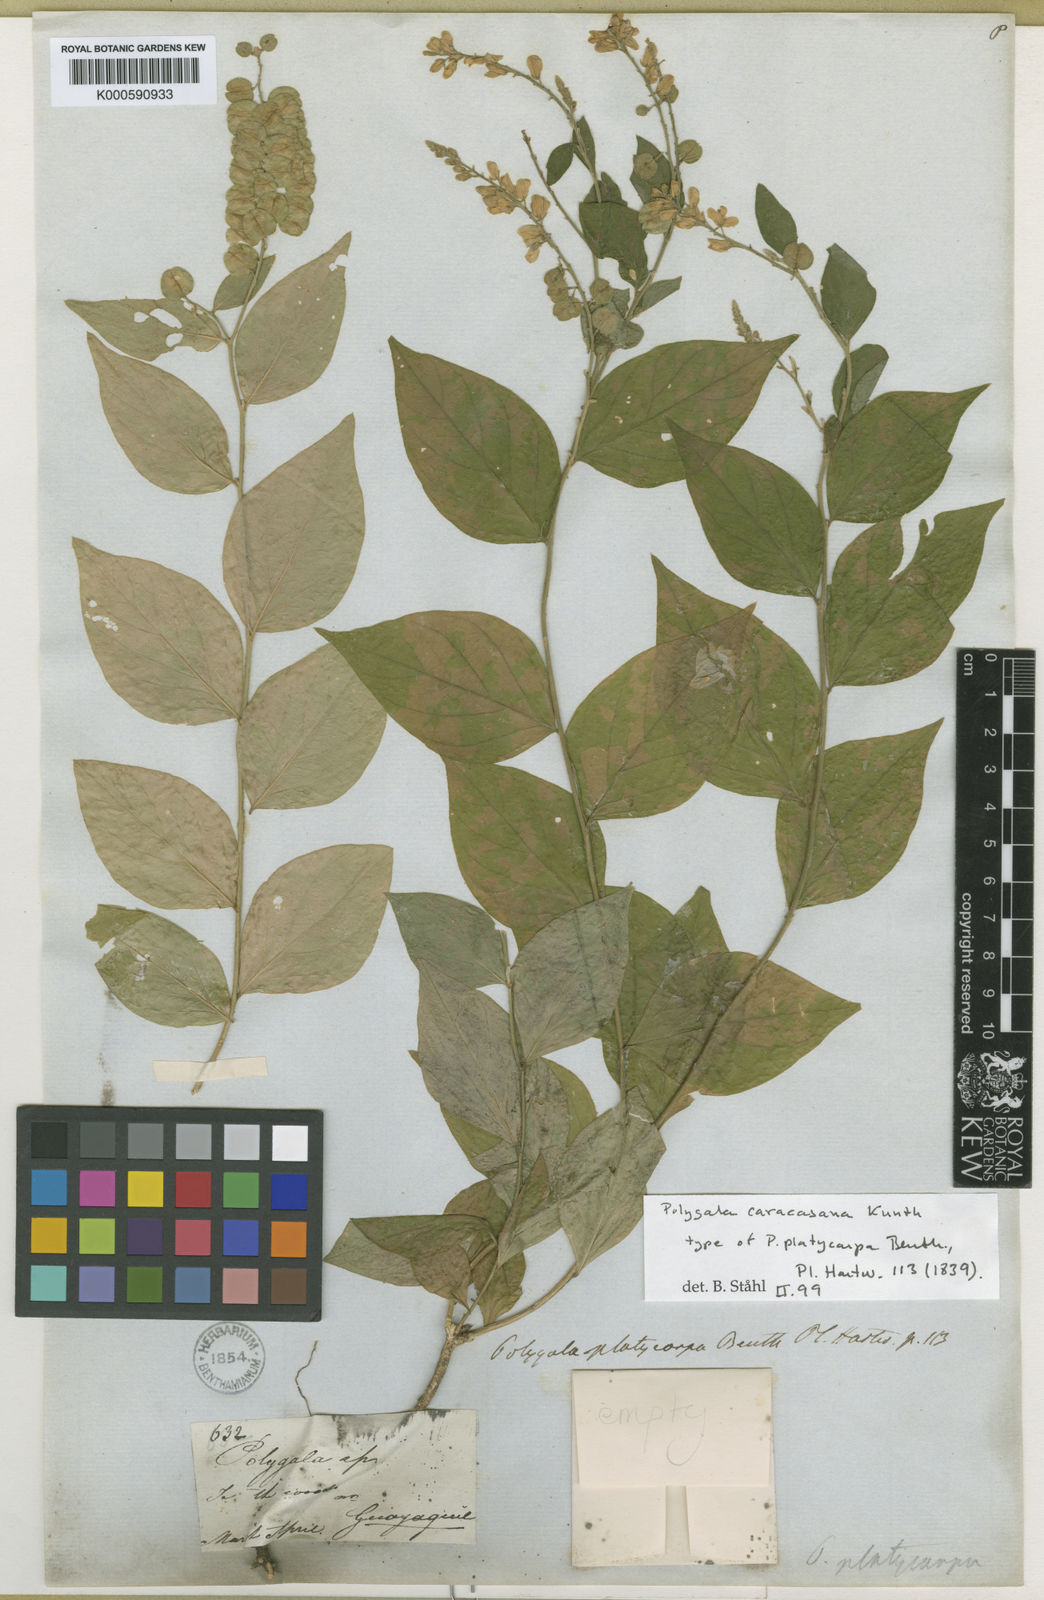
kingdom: Plantae
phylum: Tracheophyta
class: Magnoliopsida
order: Fabales
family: Polygalaceae
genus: Hebecarpa
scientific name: Hebecarpa caracasana
